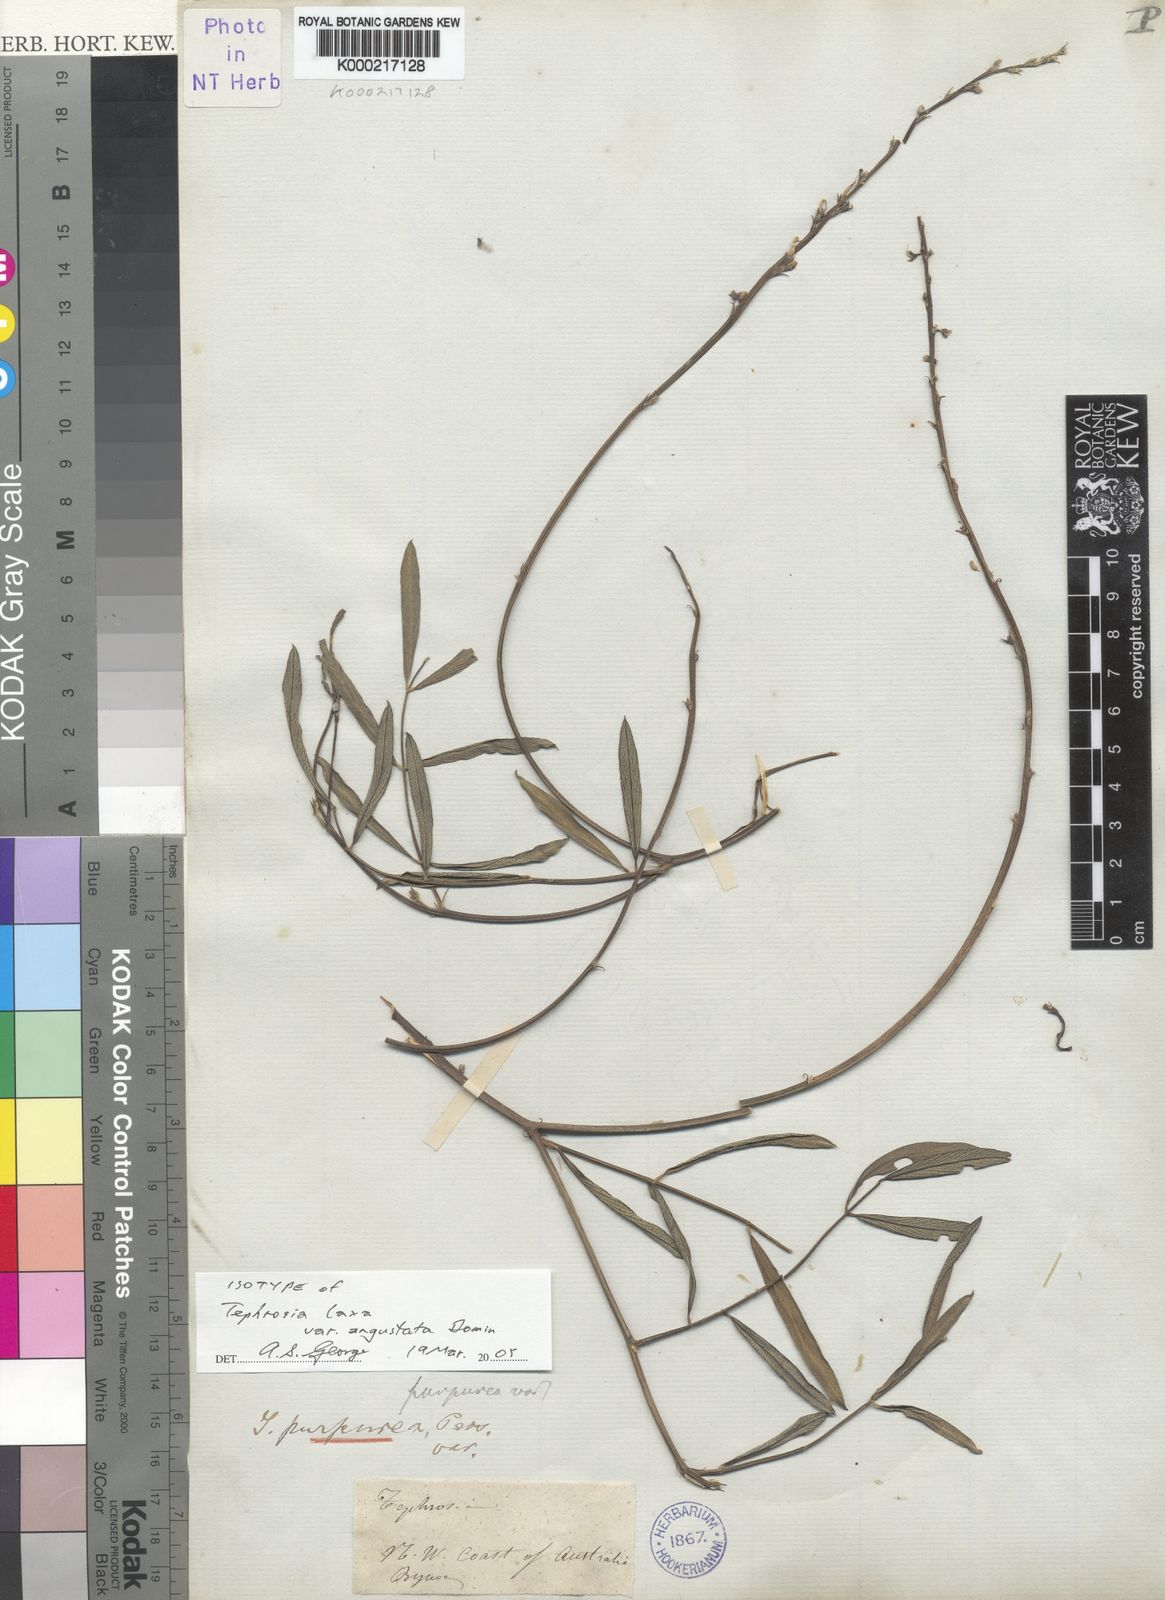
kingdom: Plantae
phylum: Tracheophyta
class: Magnoliopsida
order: Fabales
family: Fabaceae
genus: Tephrosia
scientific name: Tephrosia oligophylla
